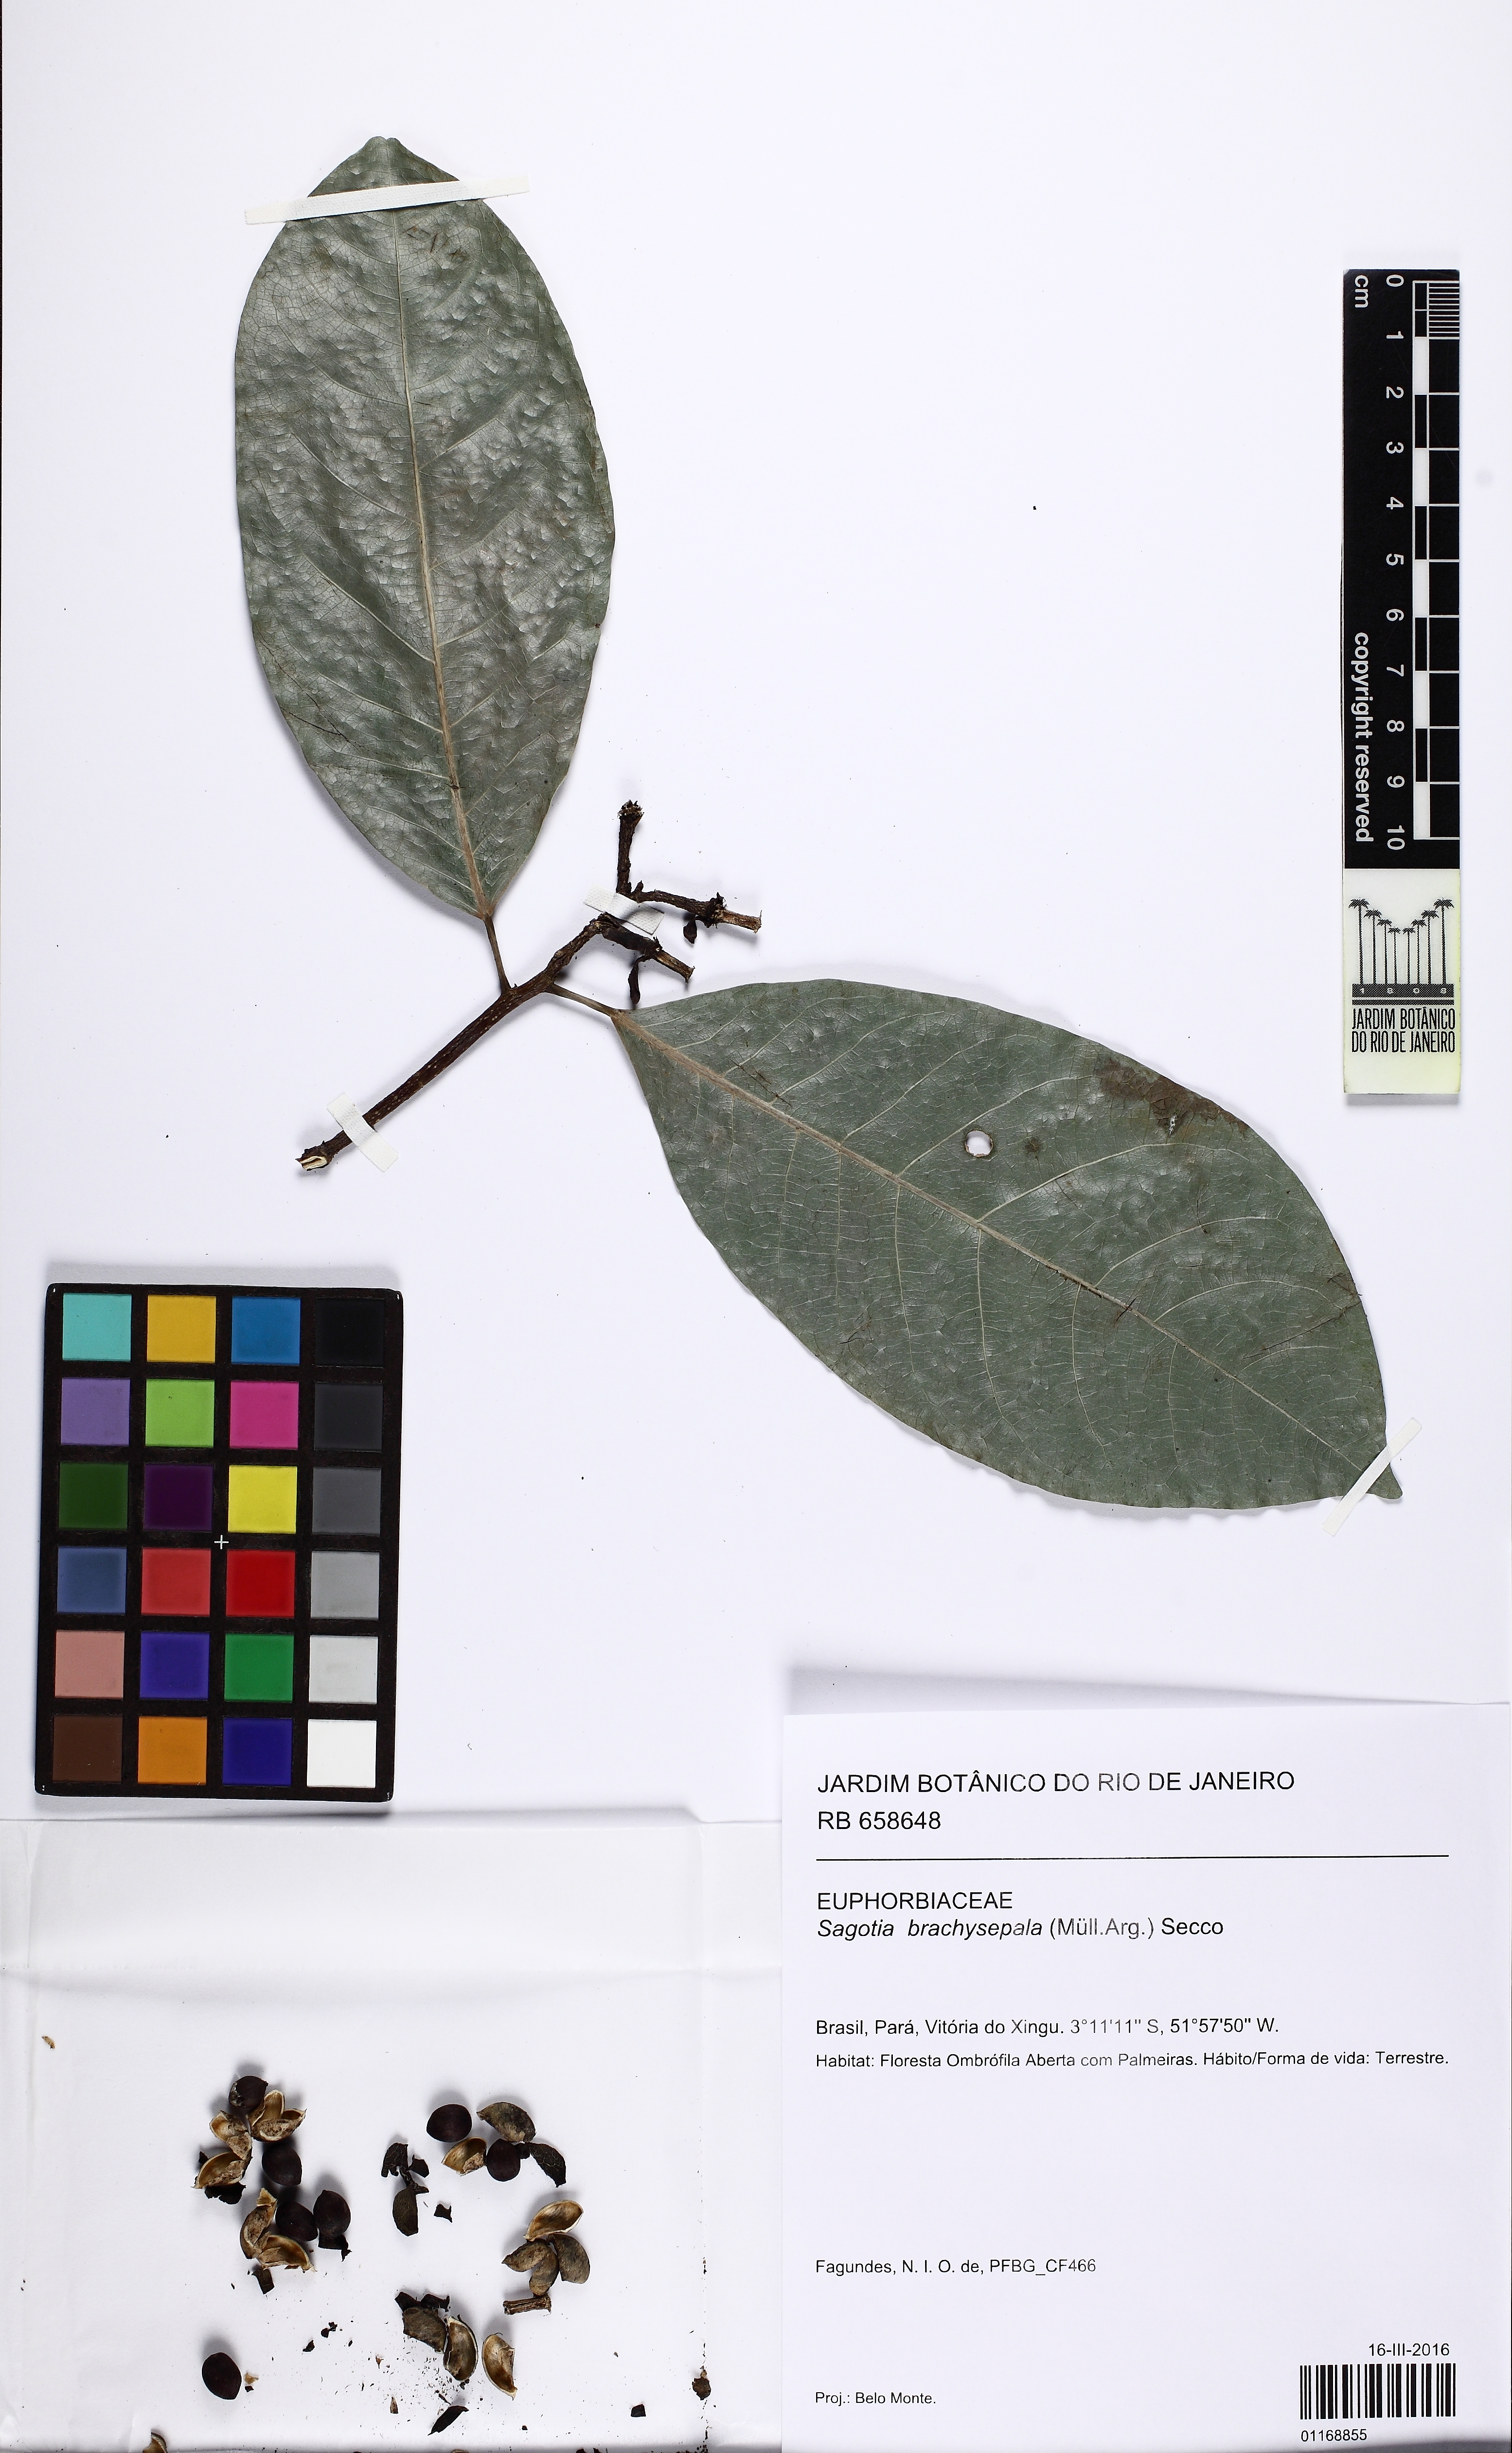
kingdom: Plantae
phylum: Tracheophyta
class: Magnoliopsida
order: Malpighiales
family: Euphorbiaceae
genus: Sagotia
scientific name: Sagotia brachysepala
